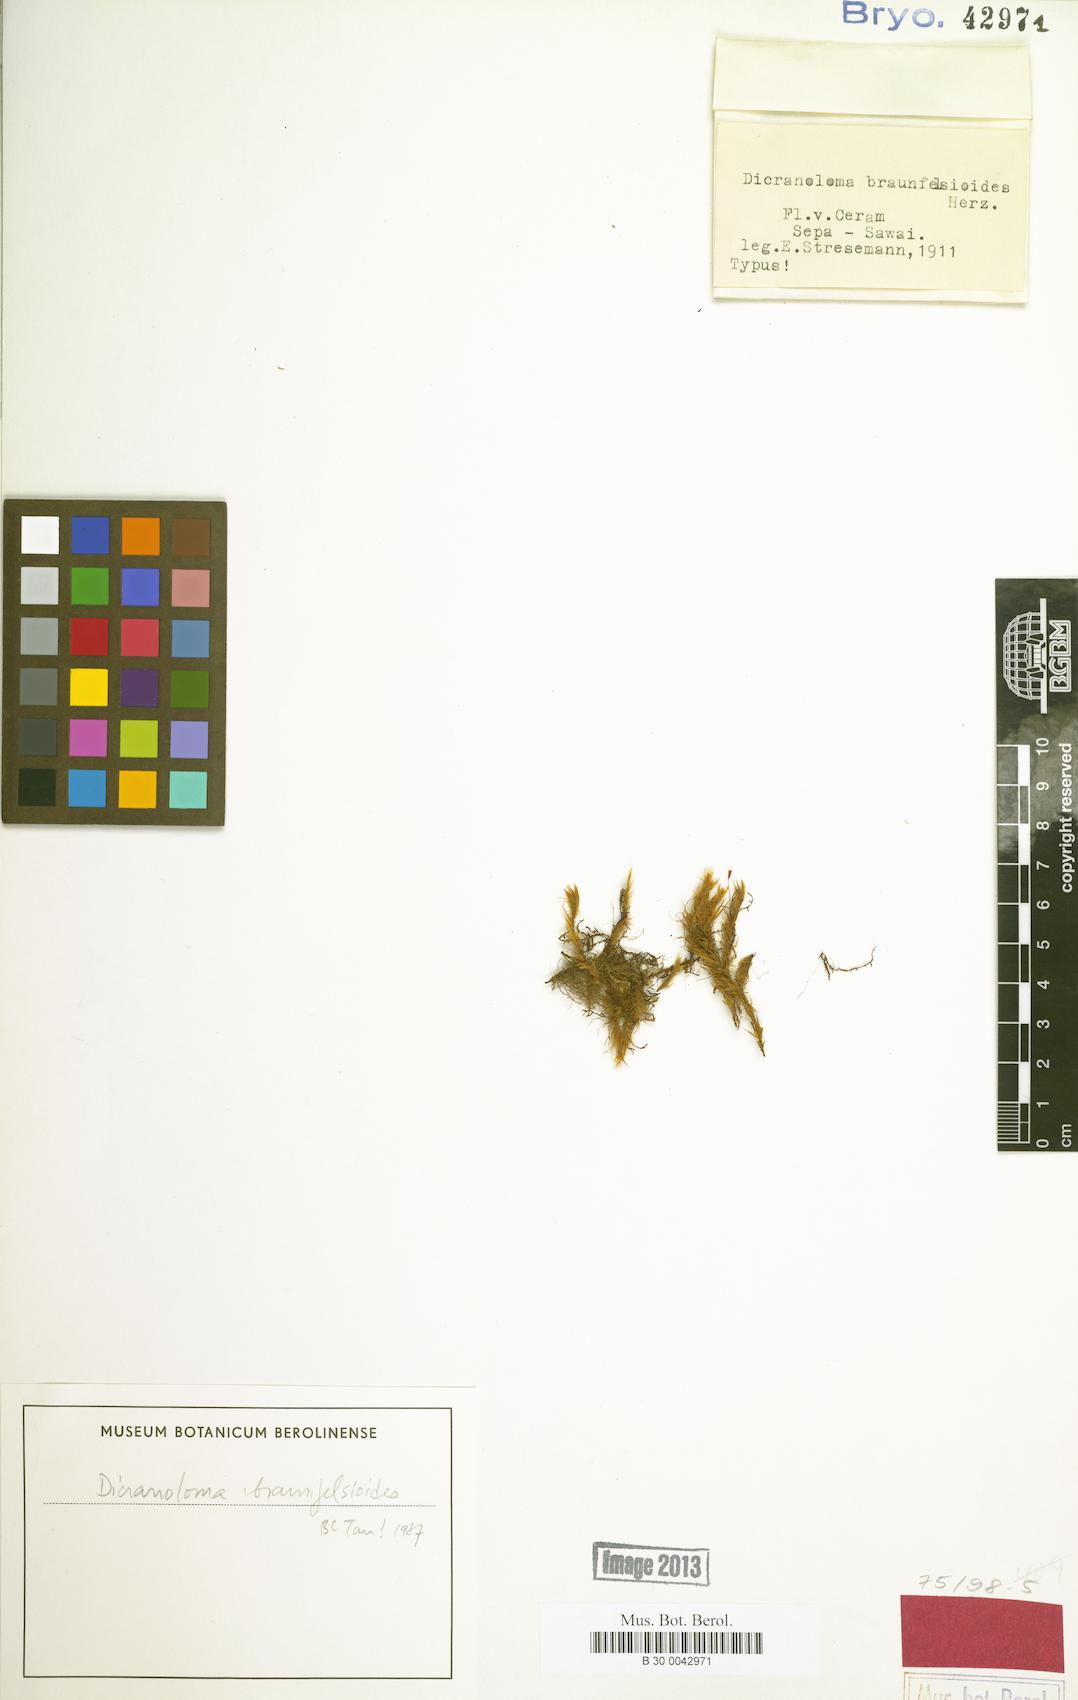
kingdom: Plantae
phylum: Bryophyta
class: Bryopsida
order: Dicranales
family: Dicranaceae
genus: Brotherobryum
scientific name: Brotherobryum macgregorii
